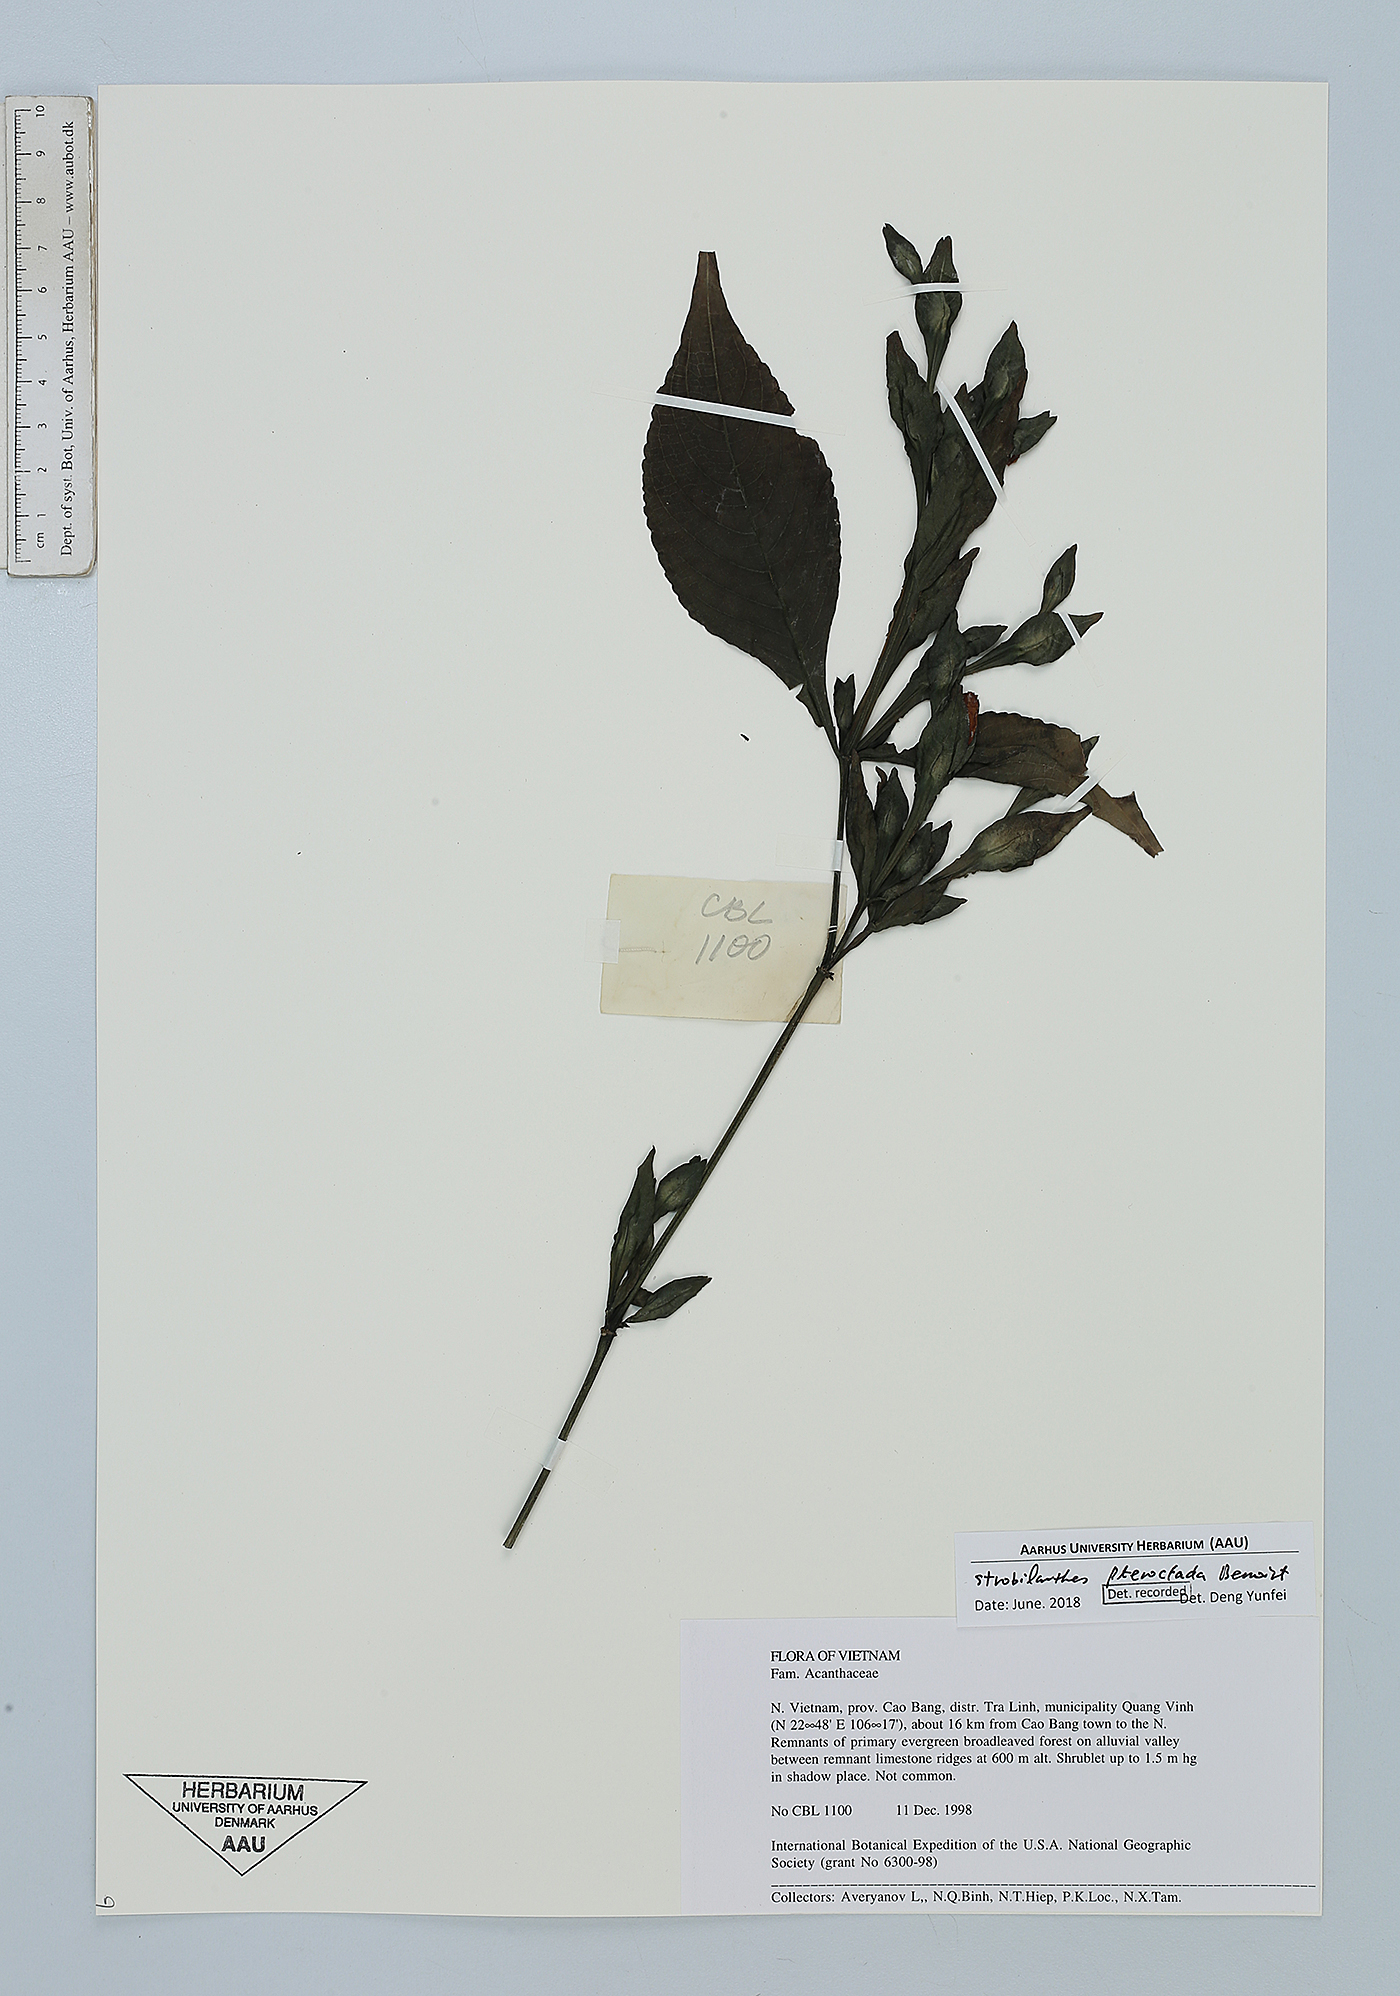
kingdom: Plantae
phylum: Tracheophyta
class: Magnoliopsida
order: Lamiales
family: Acanthaceae
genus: Strobilanthes
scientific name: Strobilanthes pteroclada
